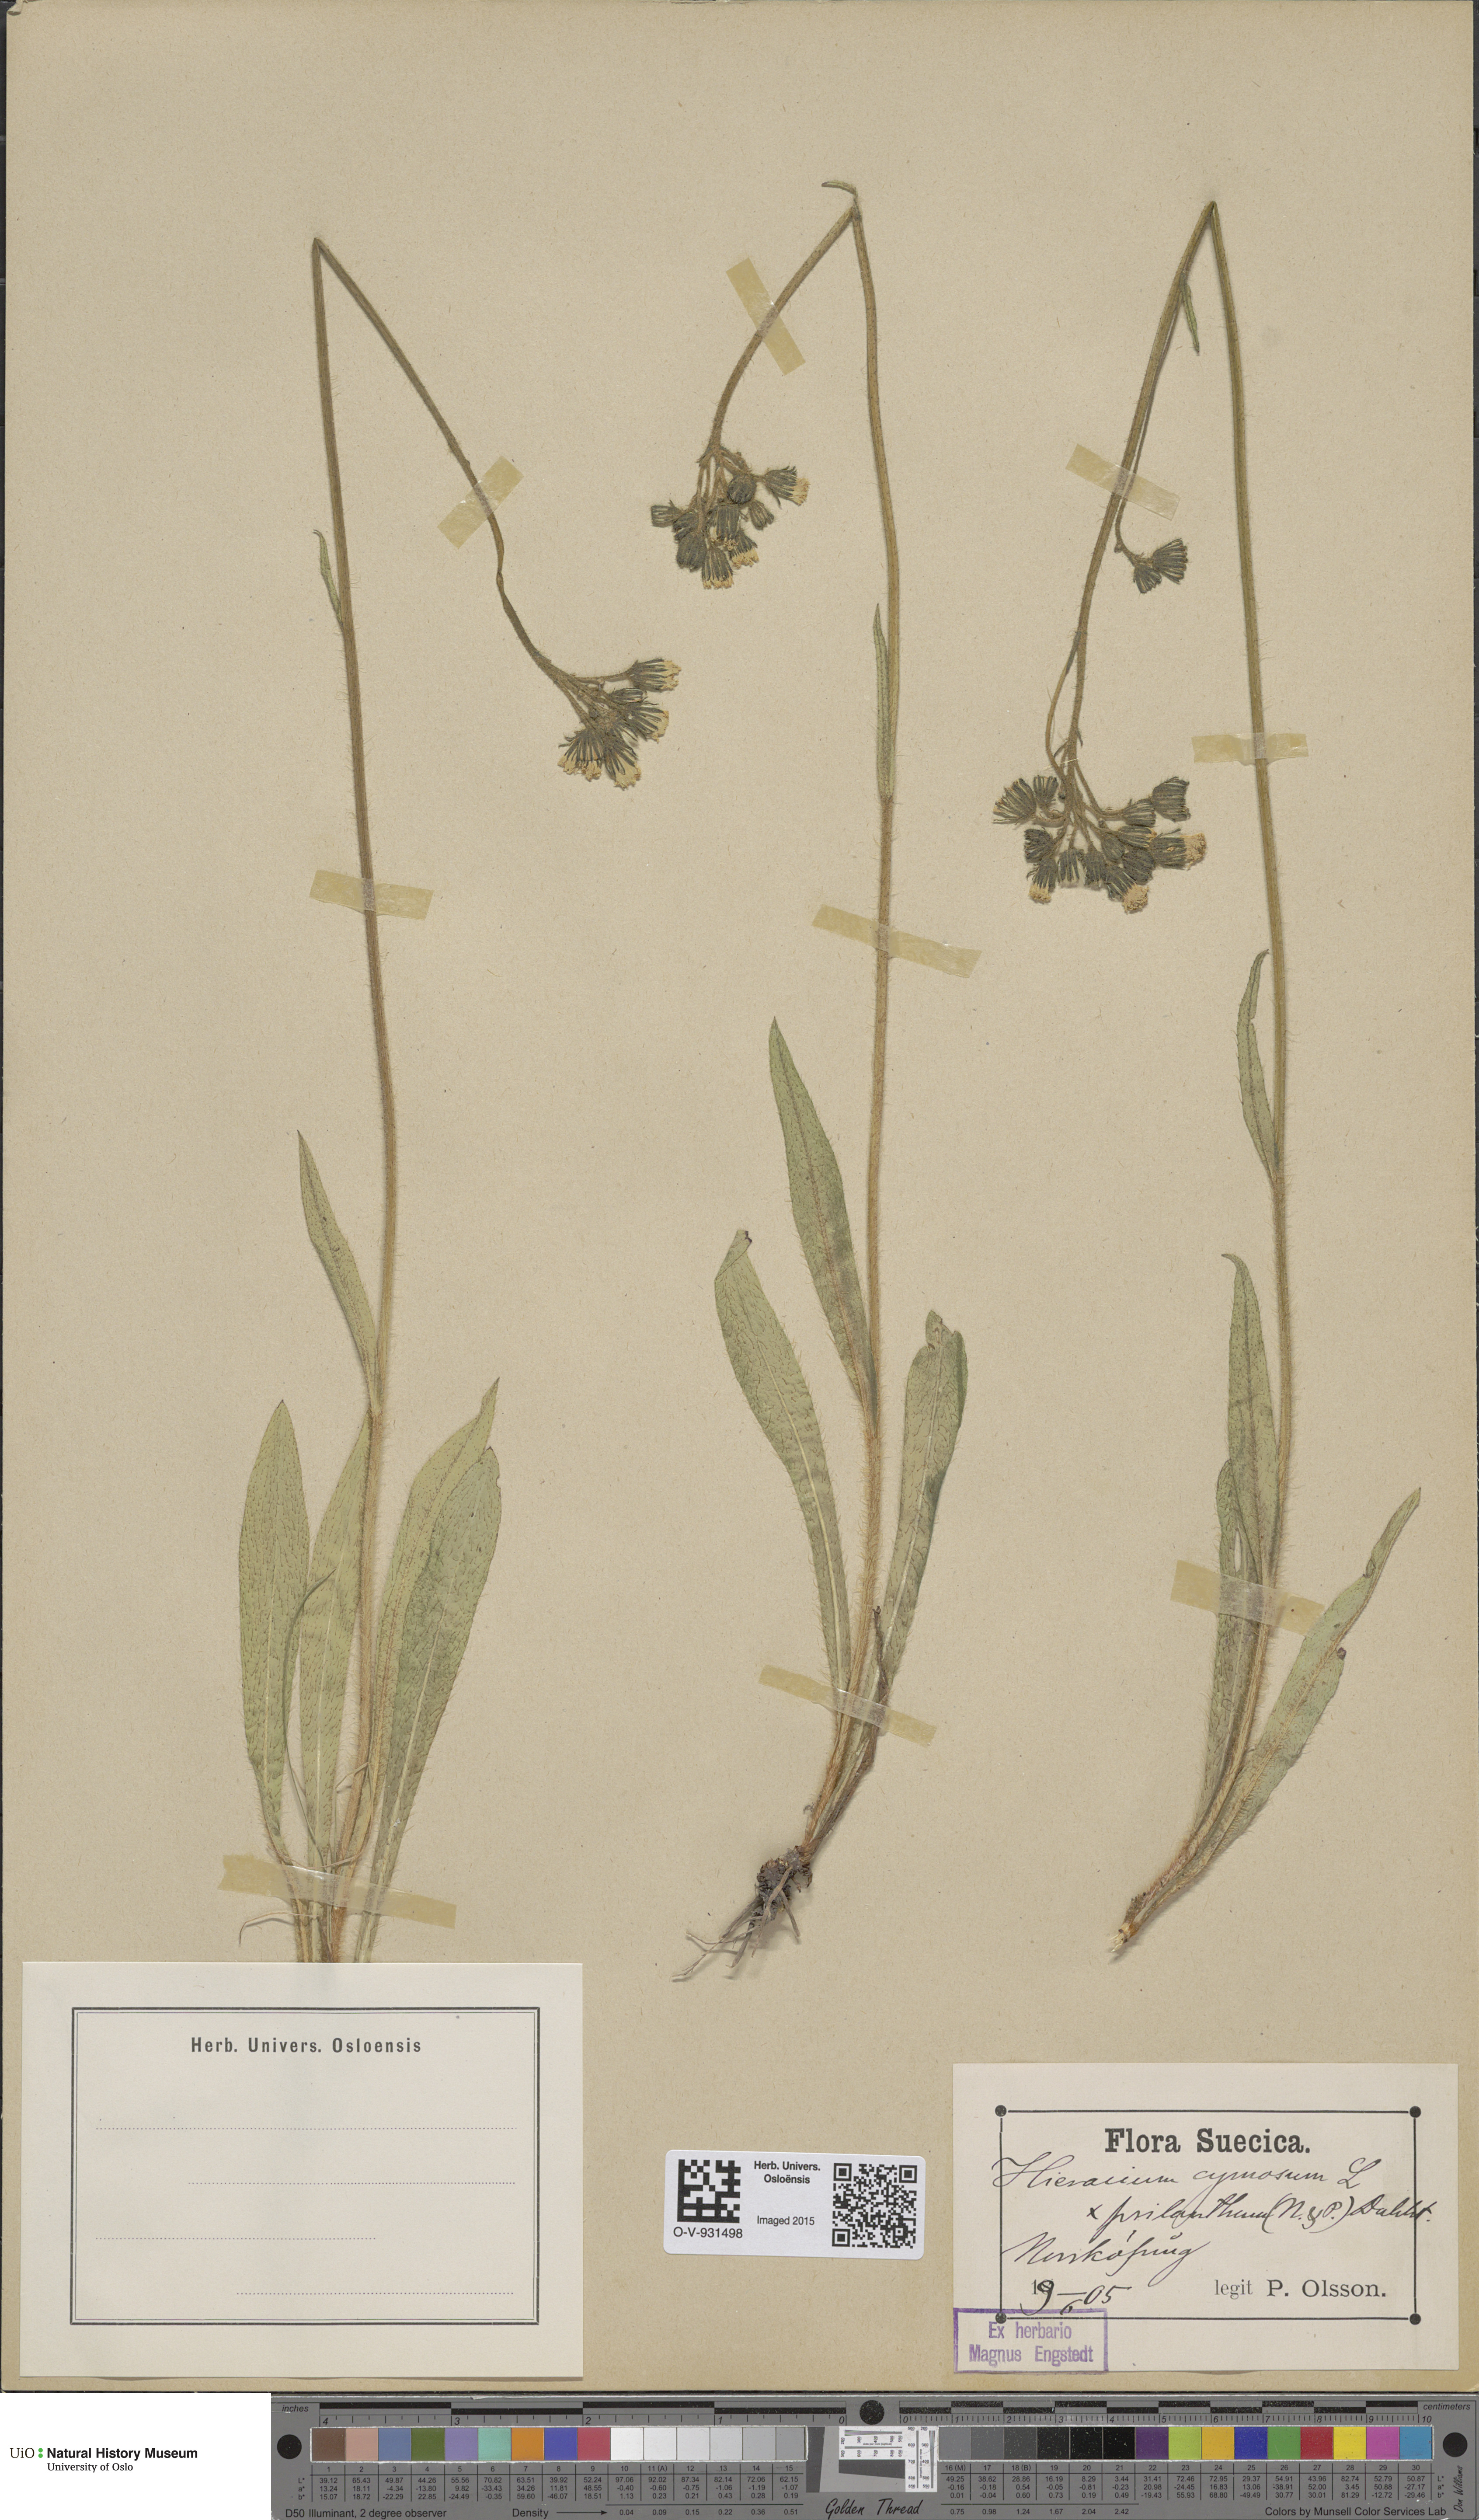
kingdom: Plantae
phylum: Tracheophyta
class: Magnoliopsida
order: Asterales
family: Asteraceae
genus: Pilosella
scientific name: Pilosella cymosa
